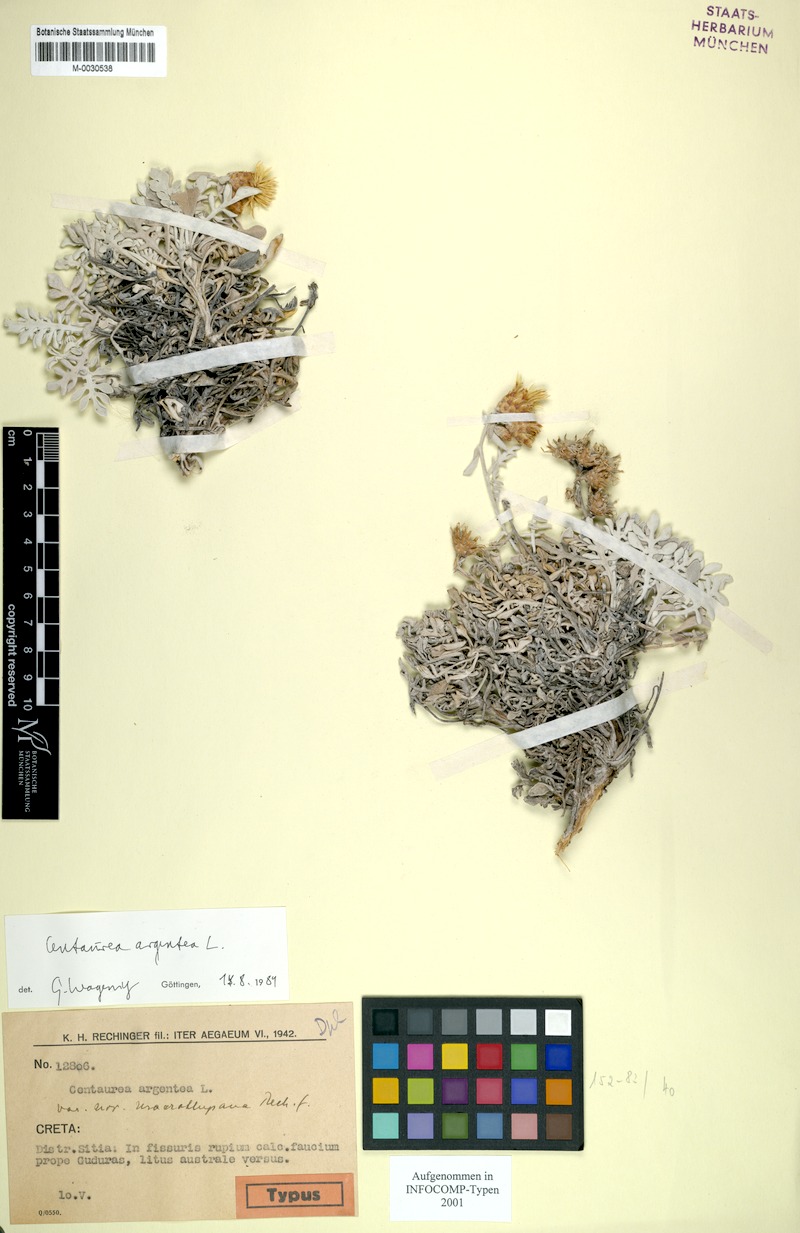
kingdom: Plantae
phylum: Tracheophyta
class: Magnoliopsida
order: Asterales
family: Asteraceae
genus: Centaurea
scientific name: Centaurea argentea
